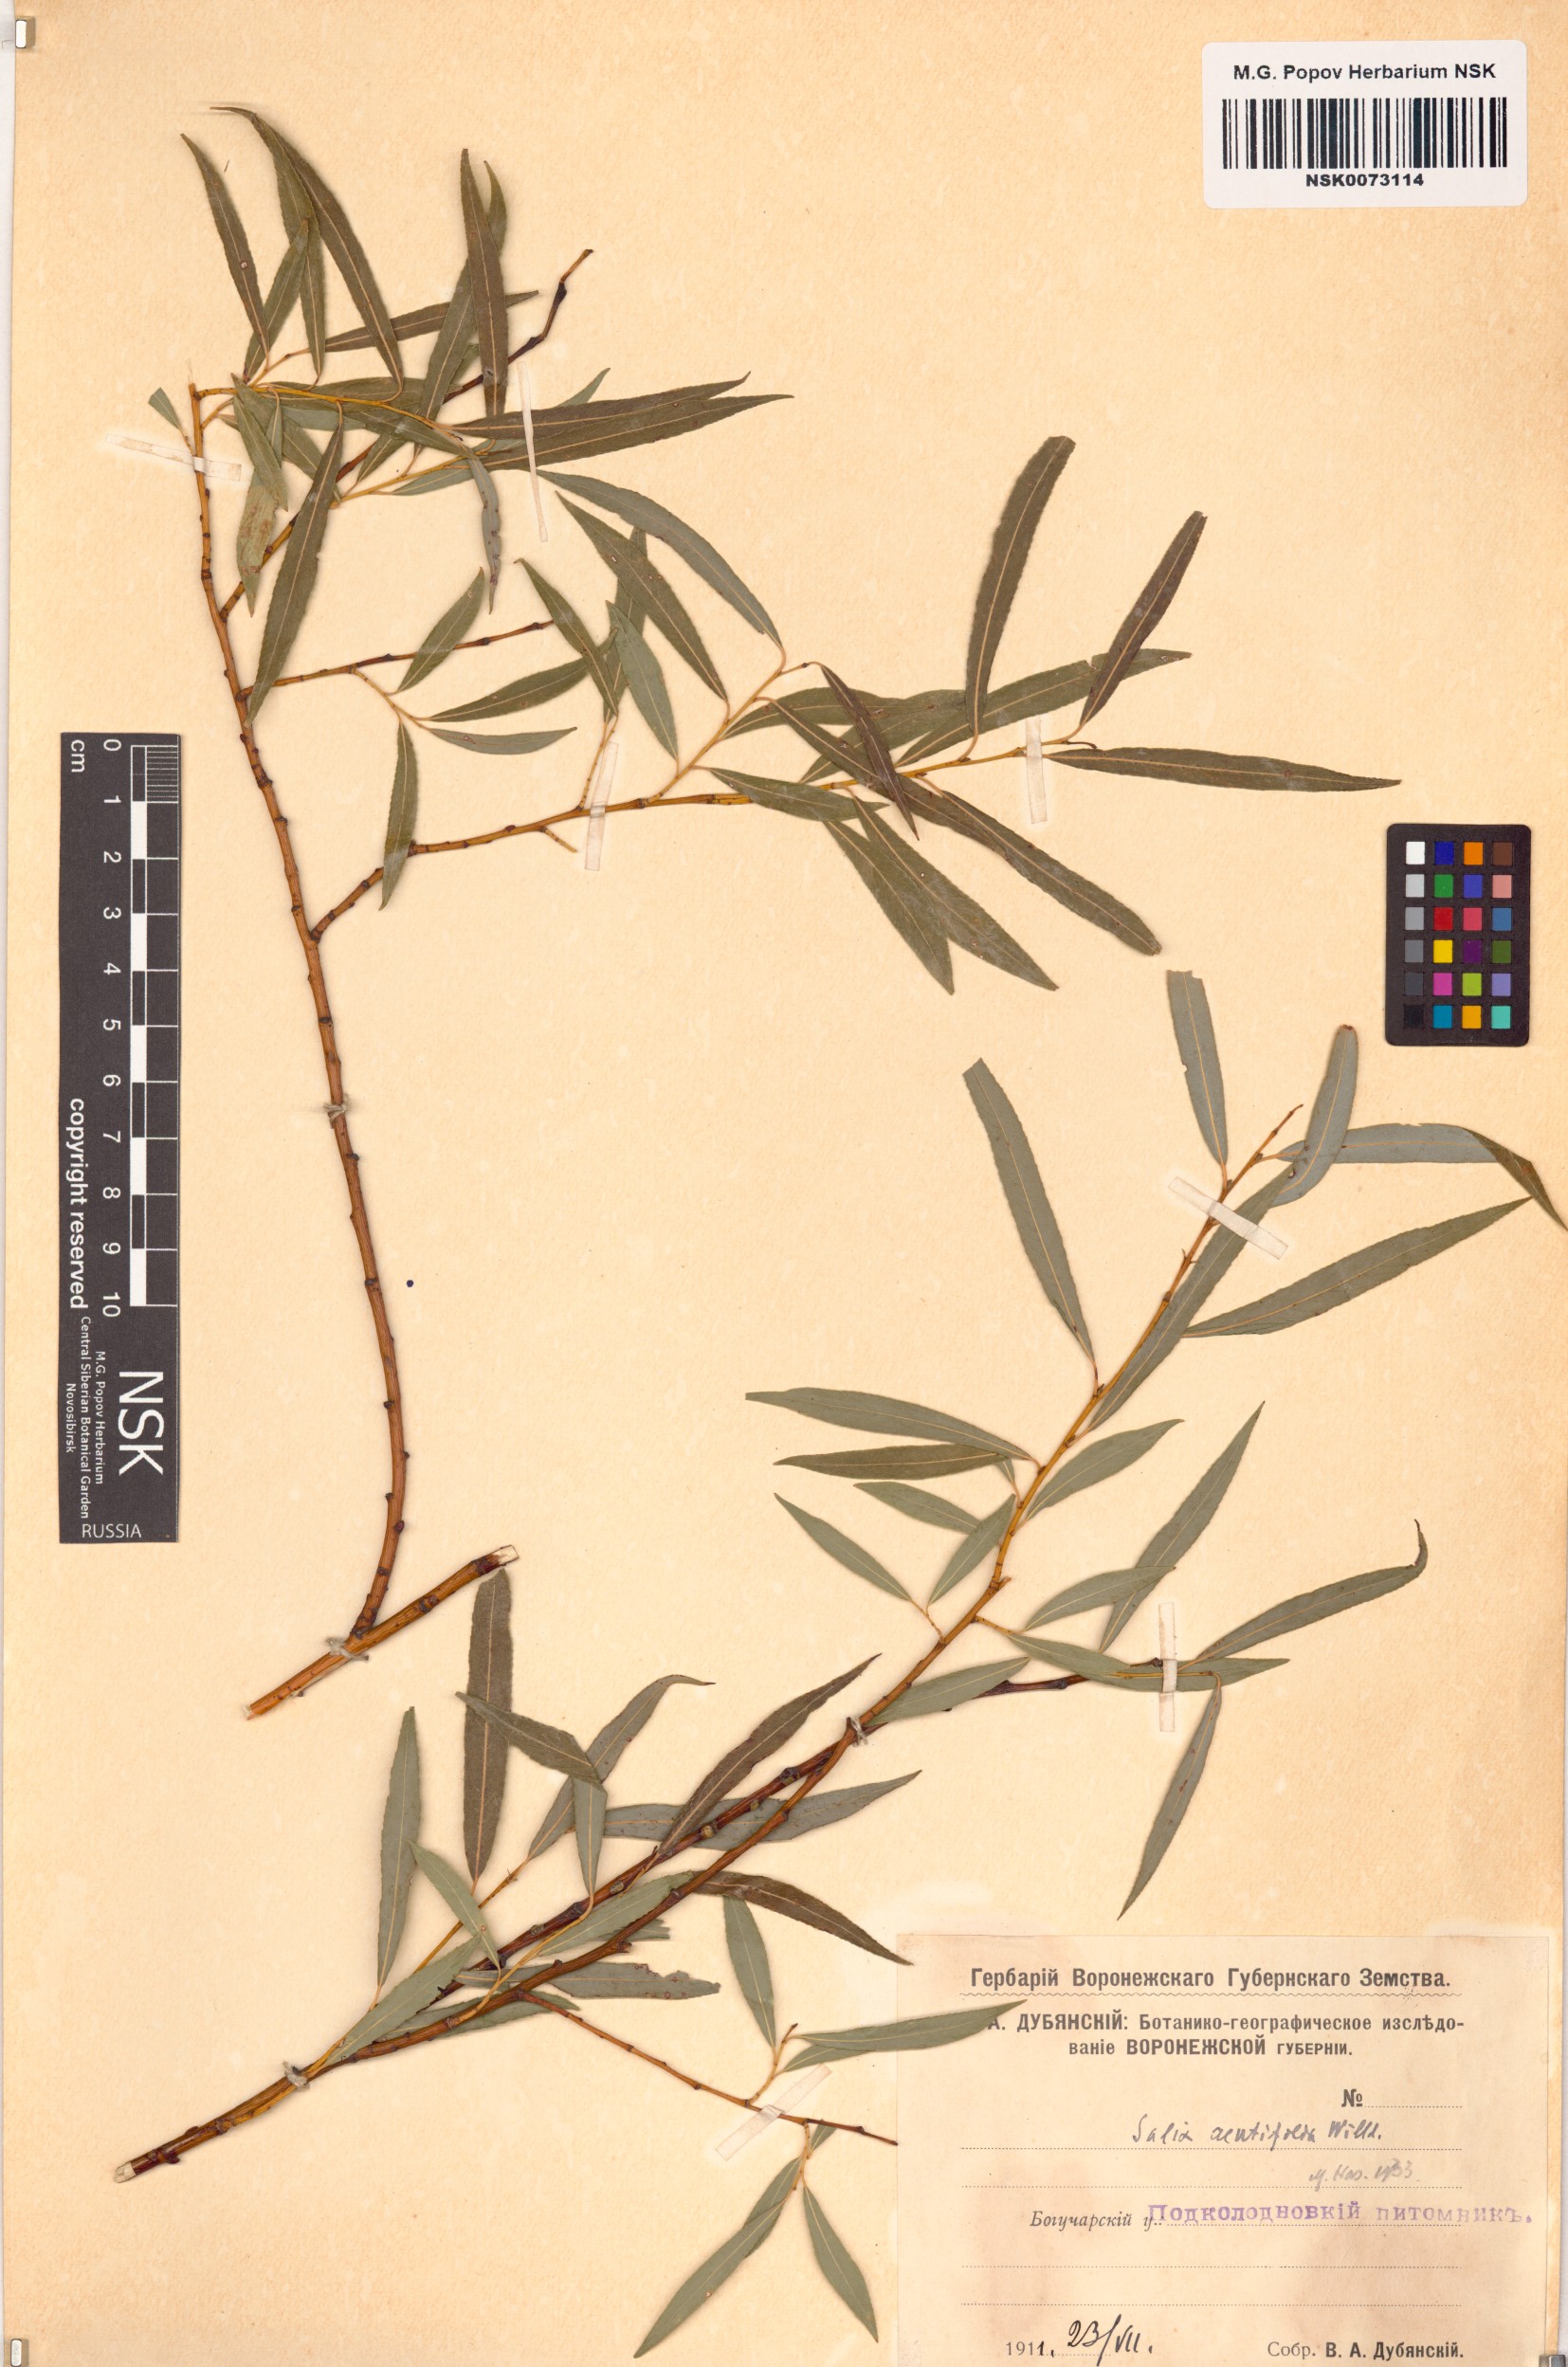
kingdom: Plantae
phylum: Tracheophyta
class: Magnoliopsida
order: Malpighiales
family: Salicaceae
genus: Salix
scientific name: Salix acutifolia
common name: Siberian violet-willow
